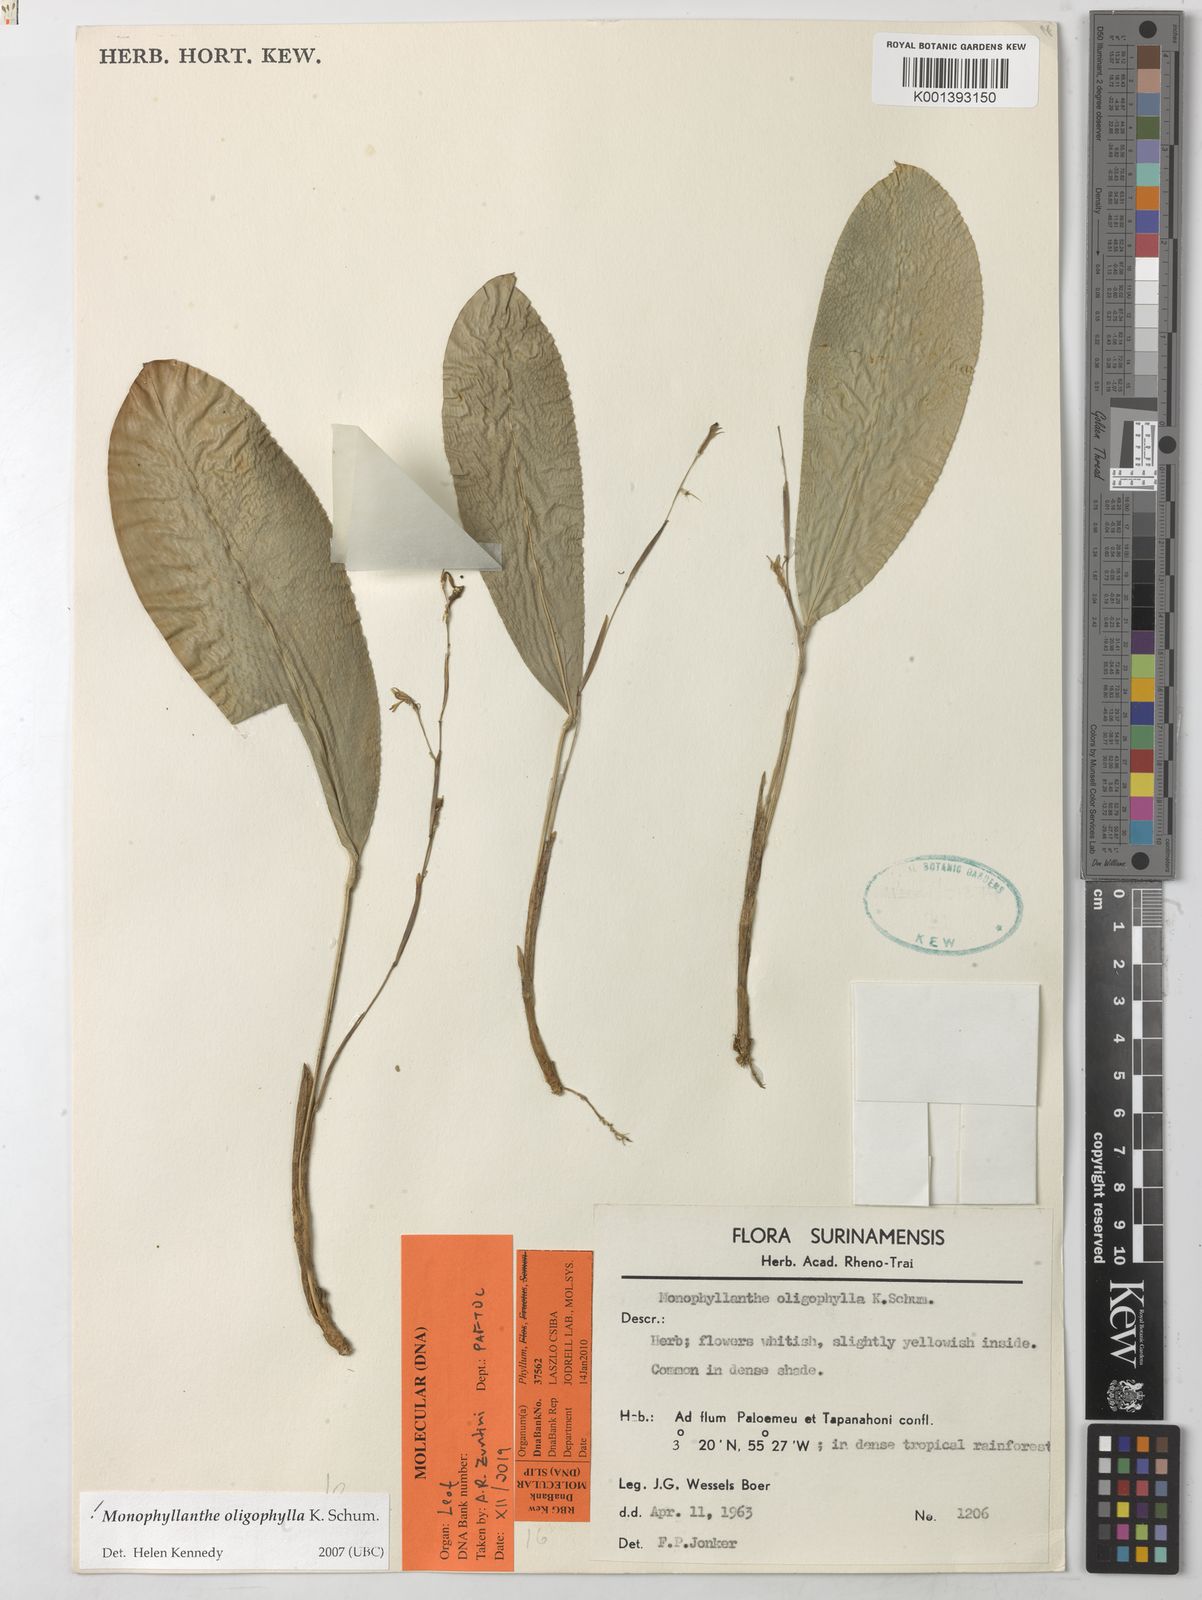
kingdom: Plantae
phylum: Tracheophyta
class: Liliopsida
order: Zingiberales
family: Marantaceae
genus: Monophyllanthe
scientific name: Monophyllanthe oligophylla
